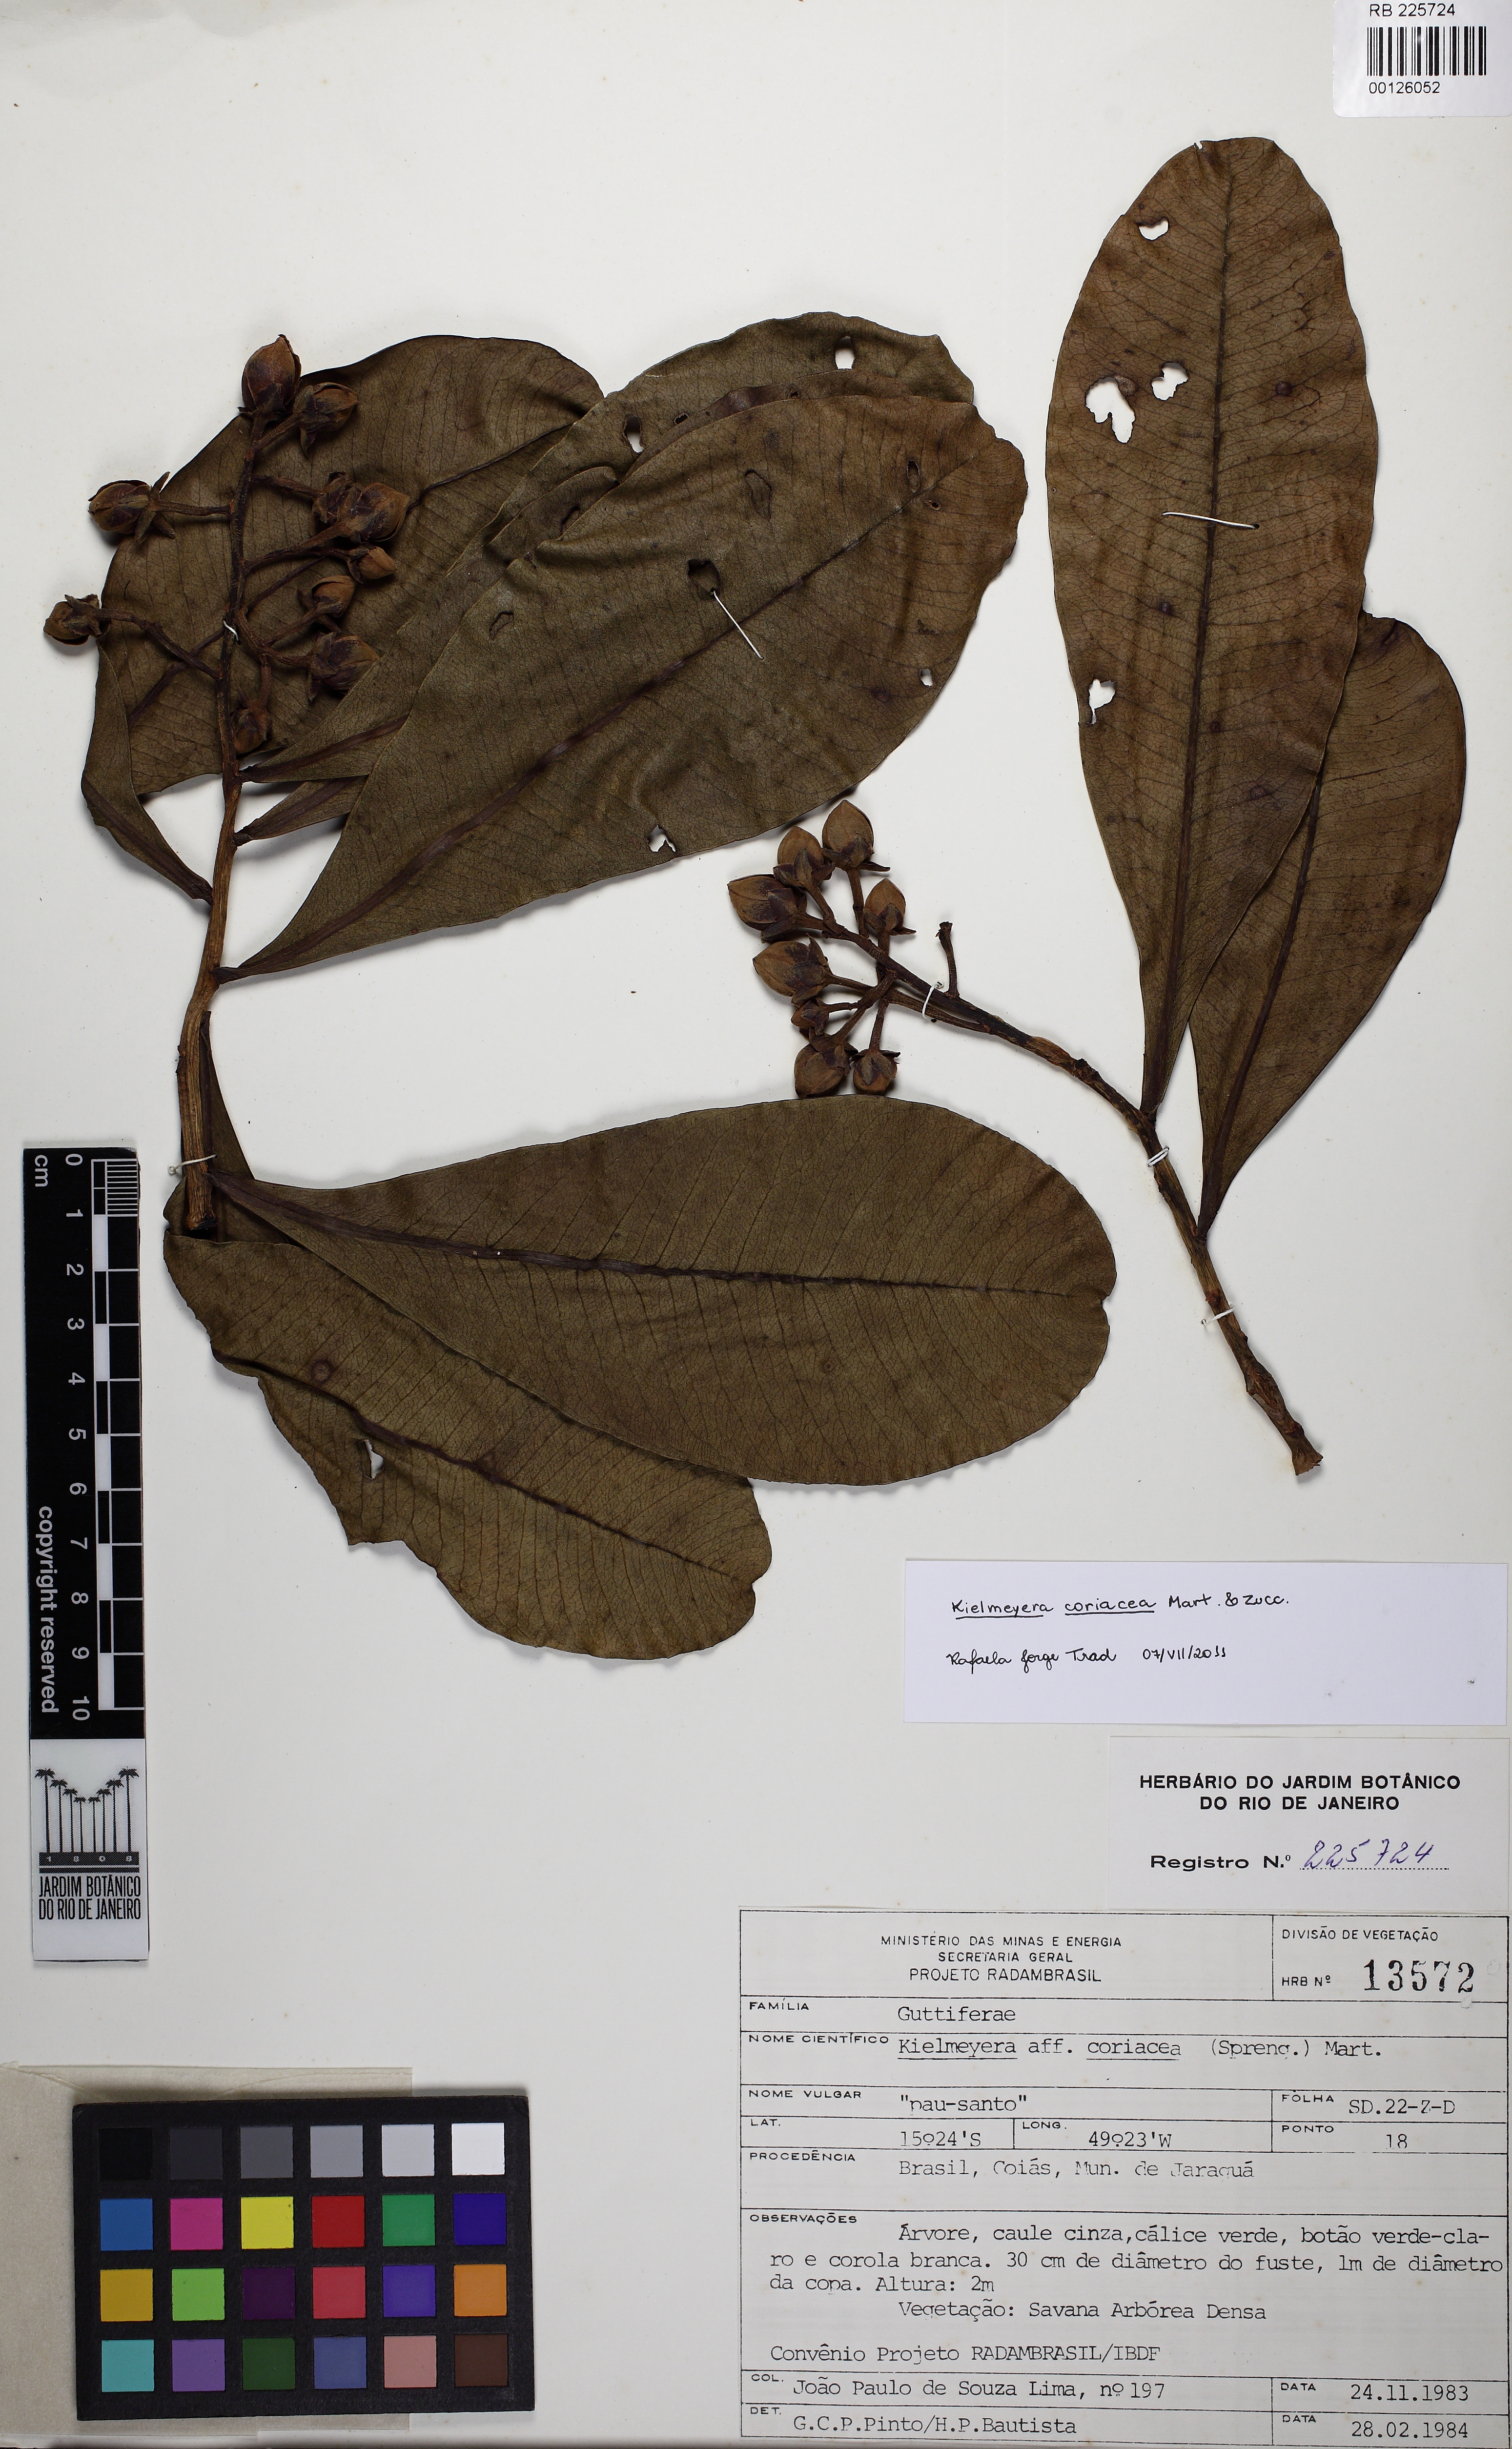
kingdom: Plantae
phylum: Tracheophyta
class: Magnoliopsida
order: Malpighiales
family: Calophyllaceae
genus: Kielmeyera
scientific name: Kielmeyera coriacea
